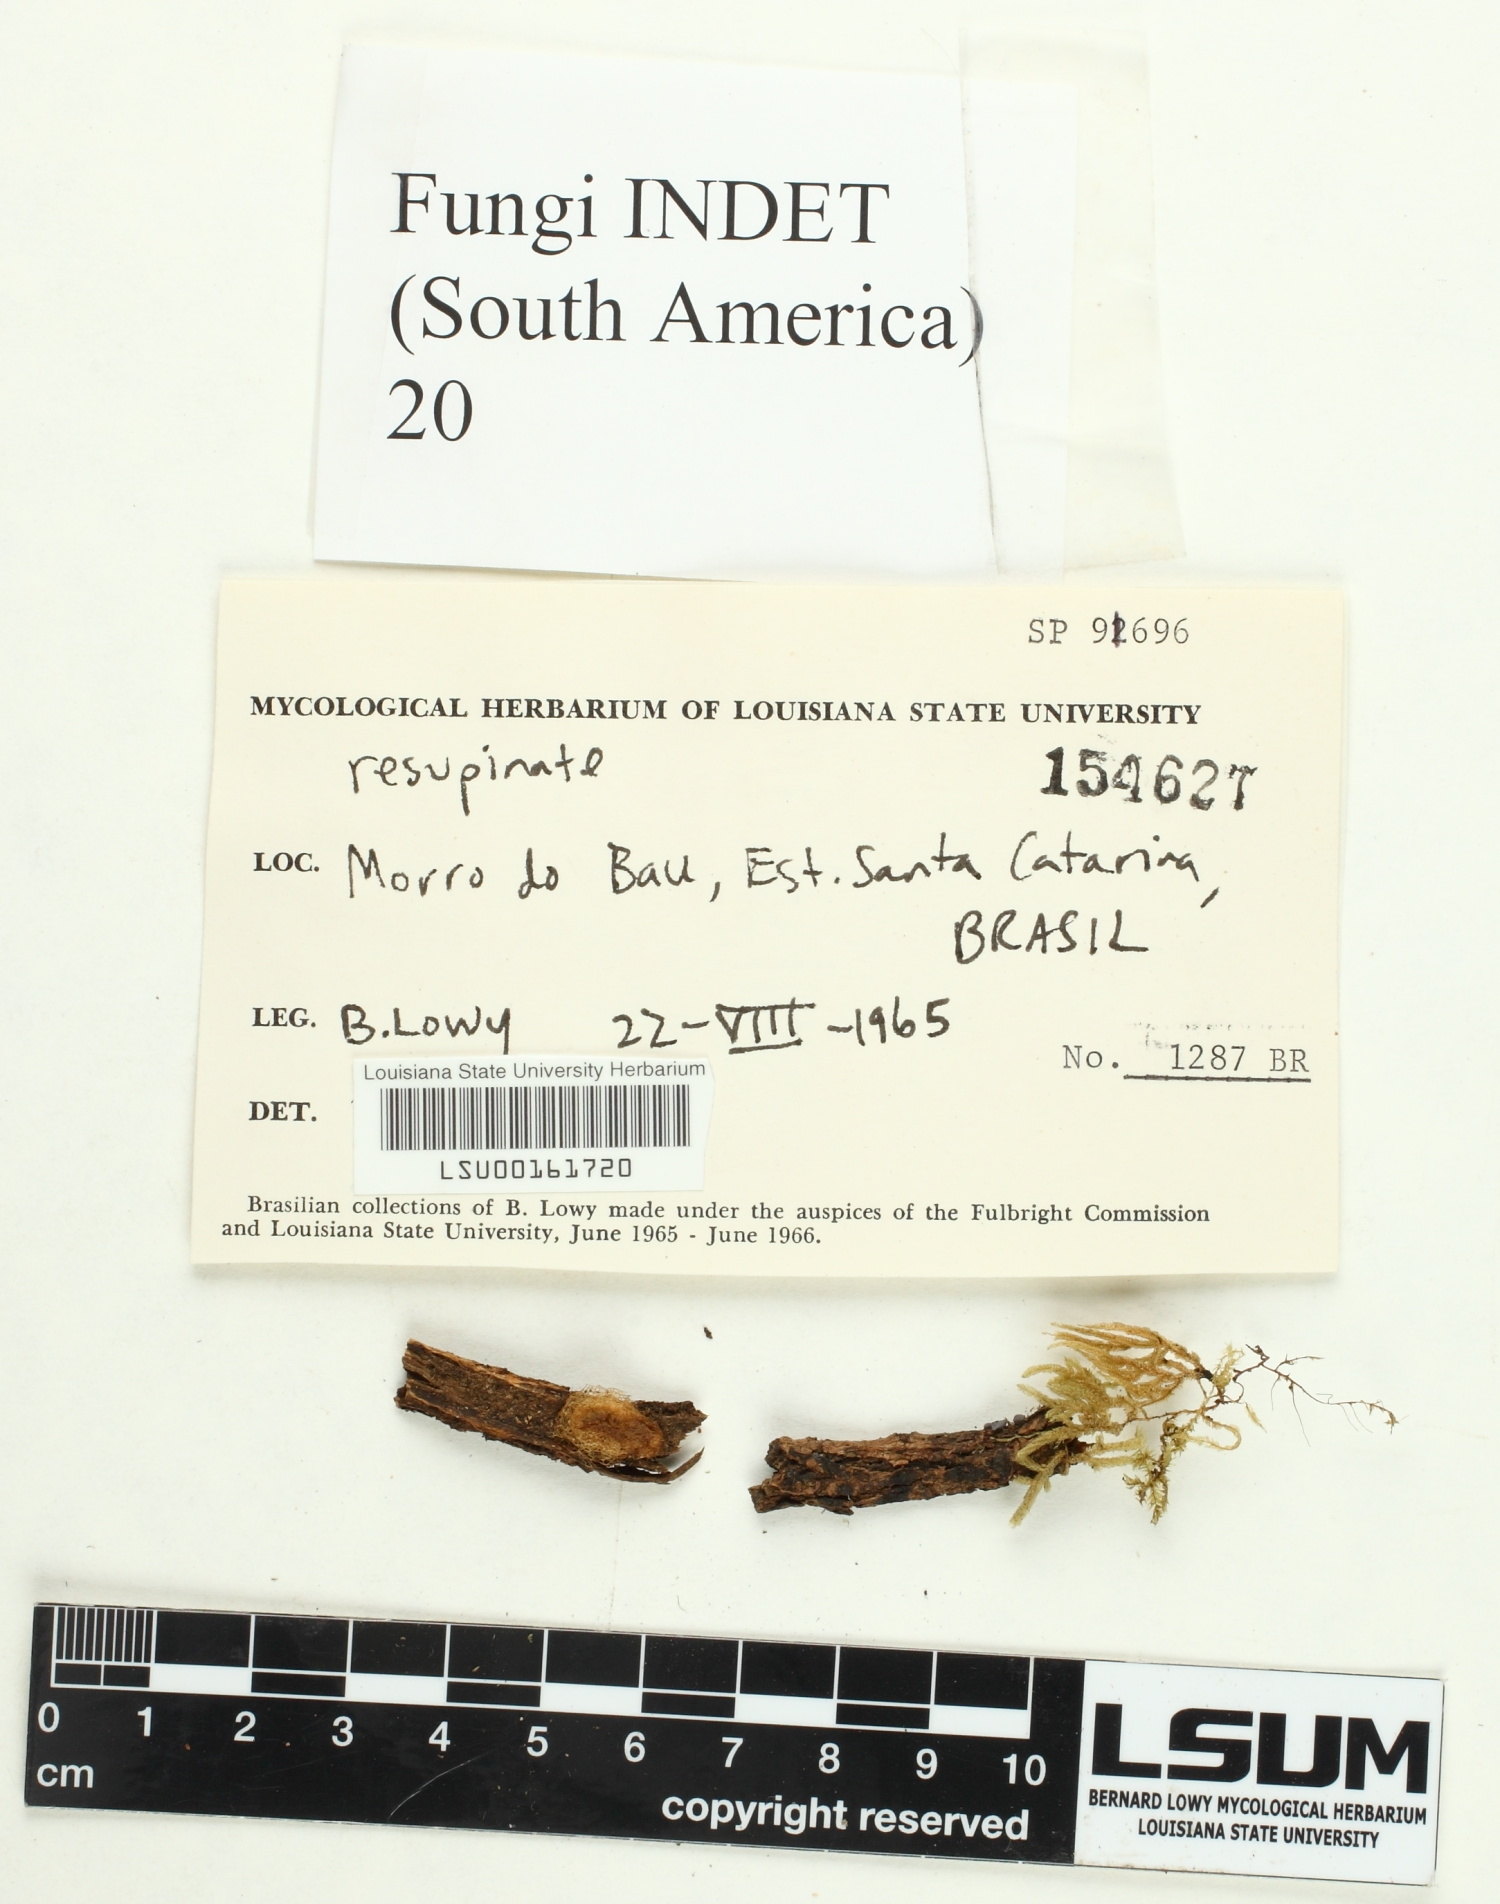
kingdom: Fungi
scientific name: Fungi
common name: Fungi
